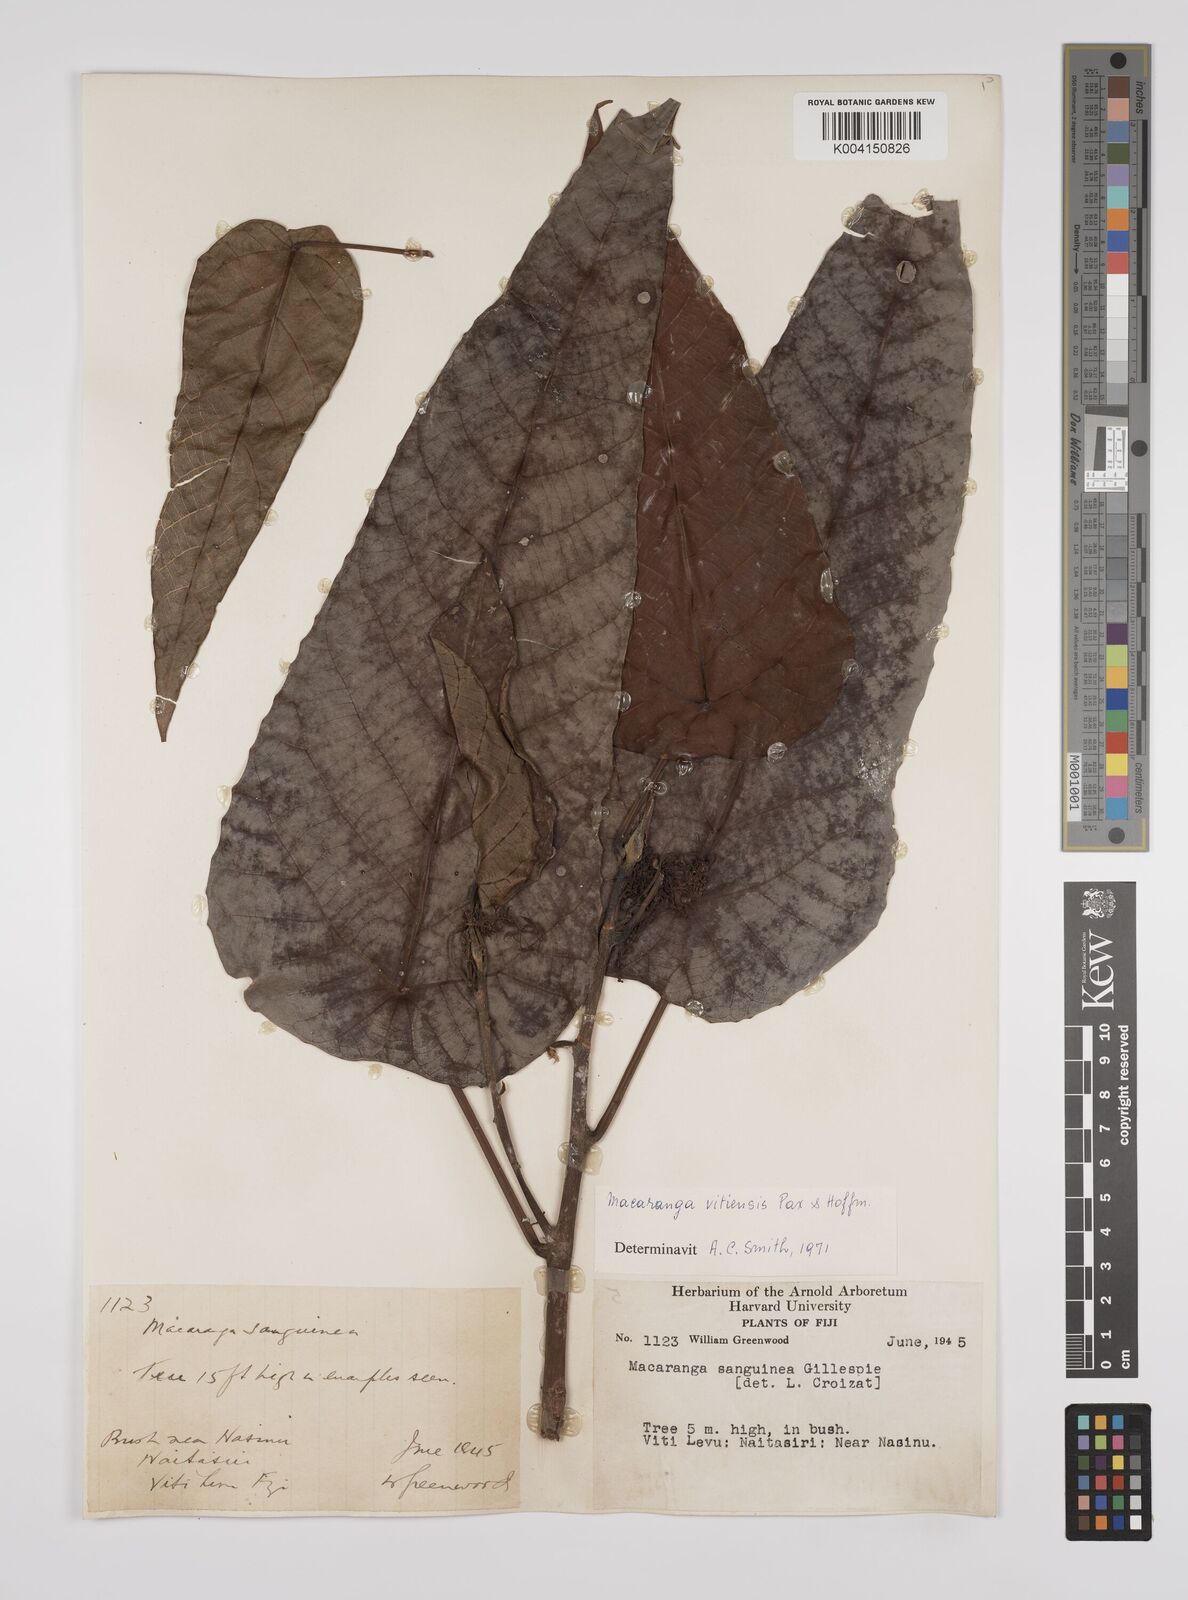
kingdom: Plantae
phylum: Tracheophyta
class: Magnoliopsida
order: Malpighiales
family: Euphorbiaceae
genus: Macaranga
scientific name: Macaranga vitiensis
